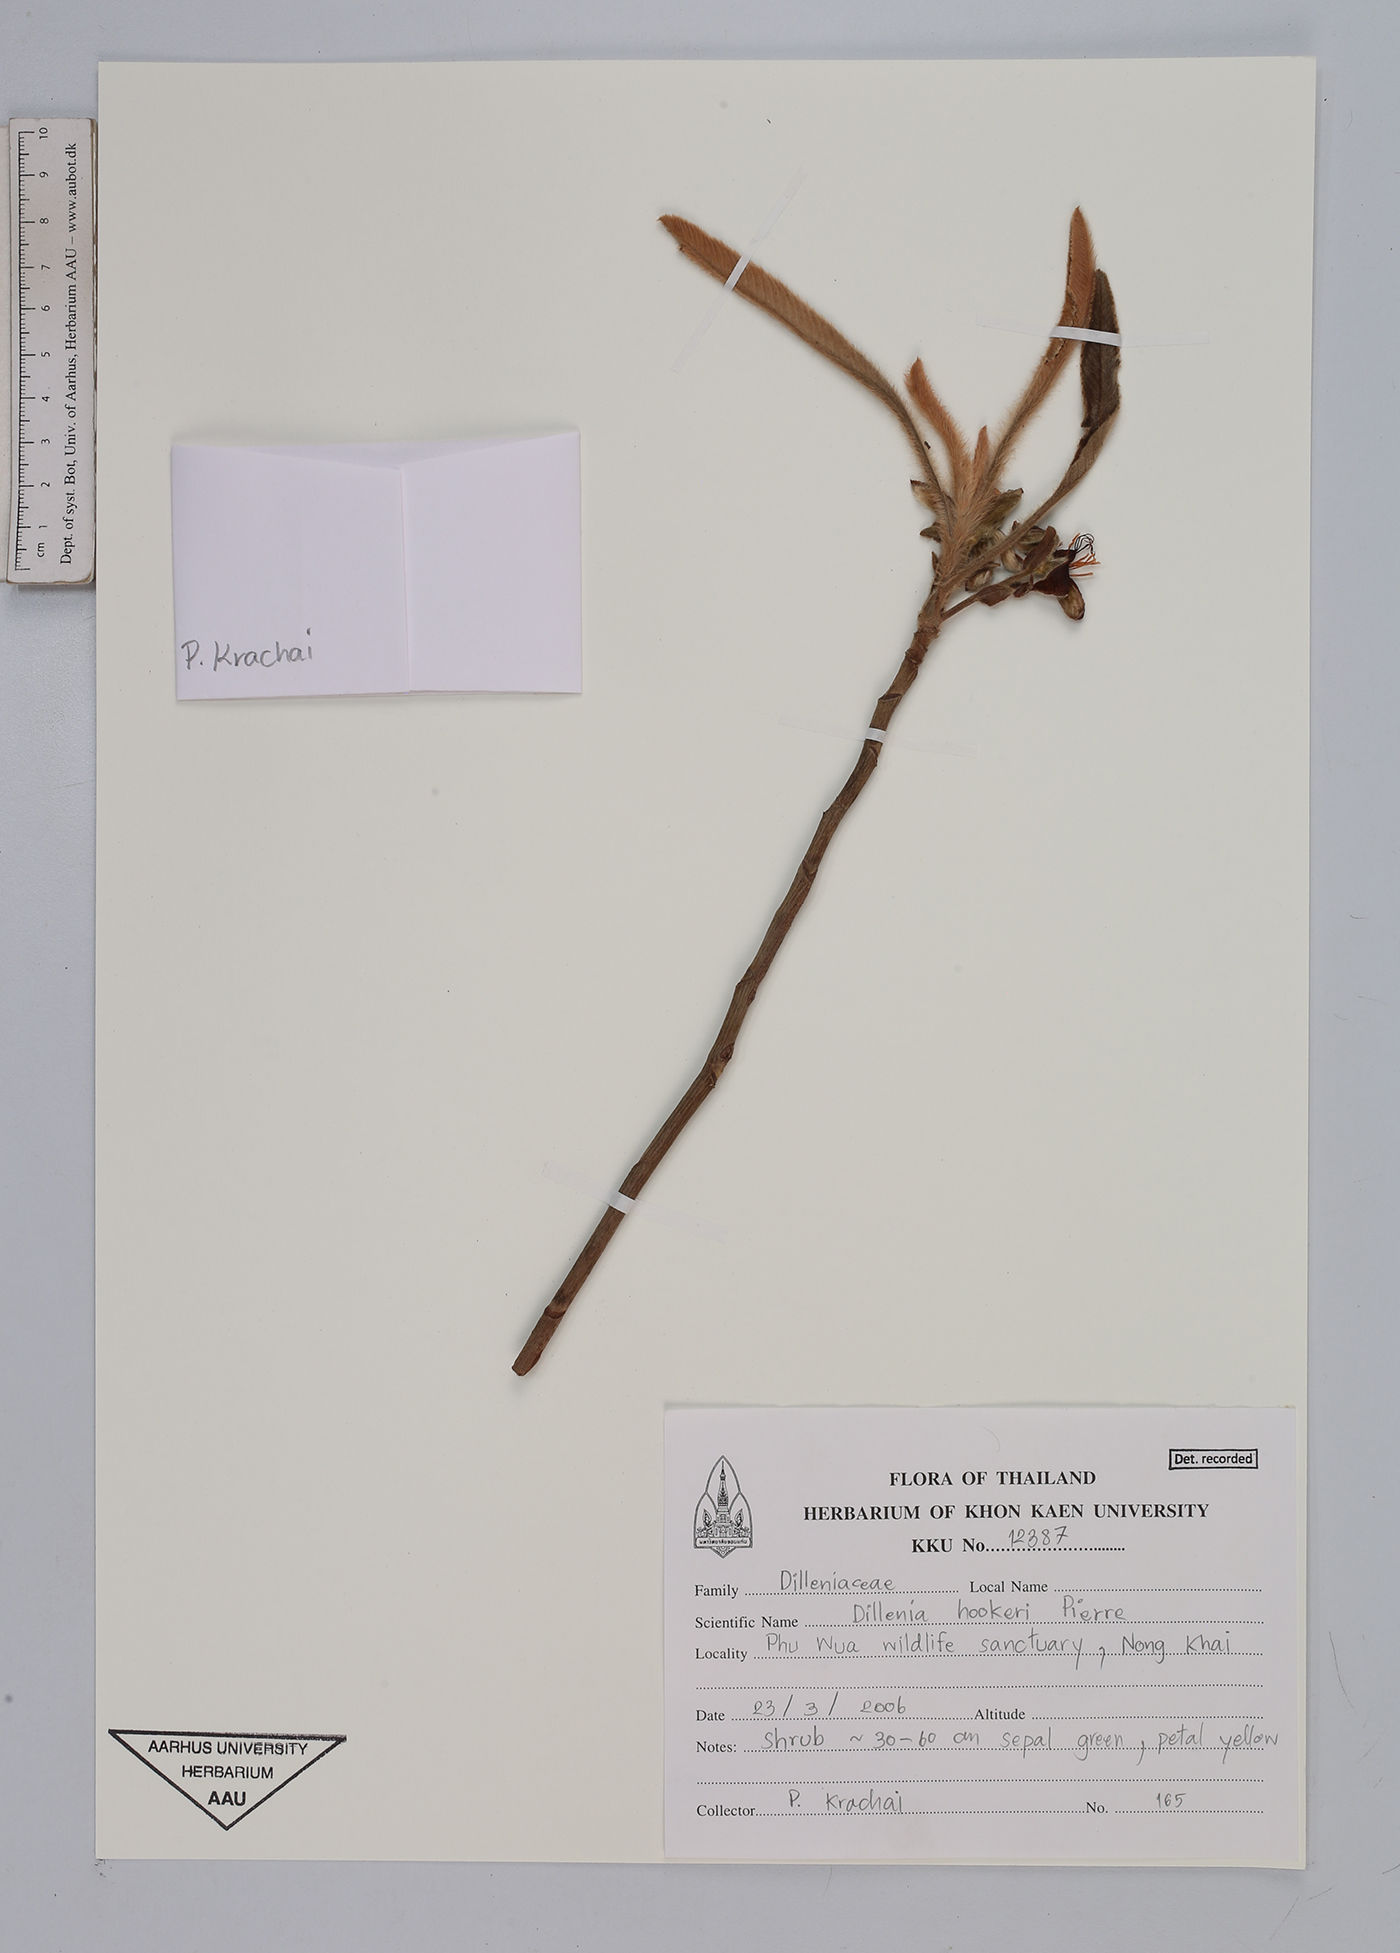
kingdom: Plantae
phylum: Tracheophyta
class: Magnoliopsida
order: Dilleniales
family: Dilleniaceae
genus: Dillenia
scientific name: Dillenia hookeri
